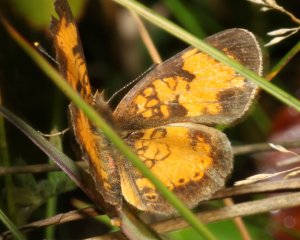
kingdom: Animalia
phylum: Arthropoda
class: Insecta
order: Lepidoptera
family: Nymphalidae
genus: Phyciodes
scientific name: Phyciodes tharos
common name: Northern Crescent
